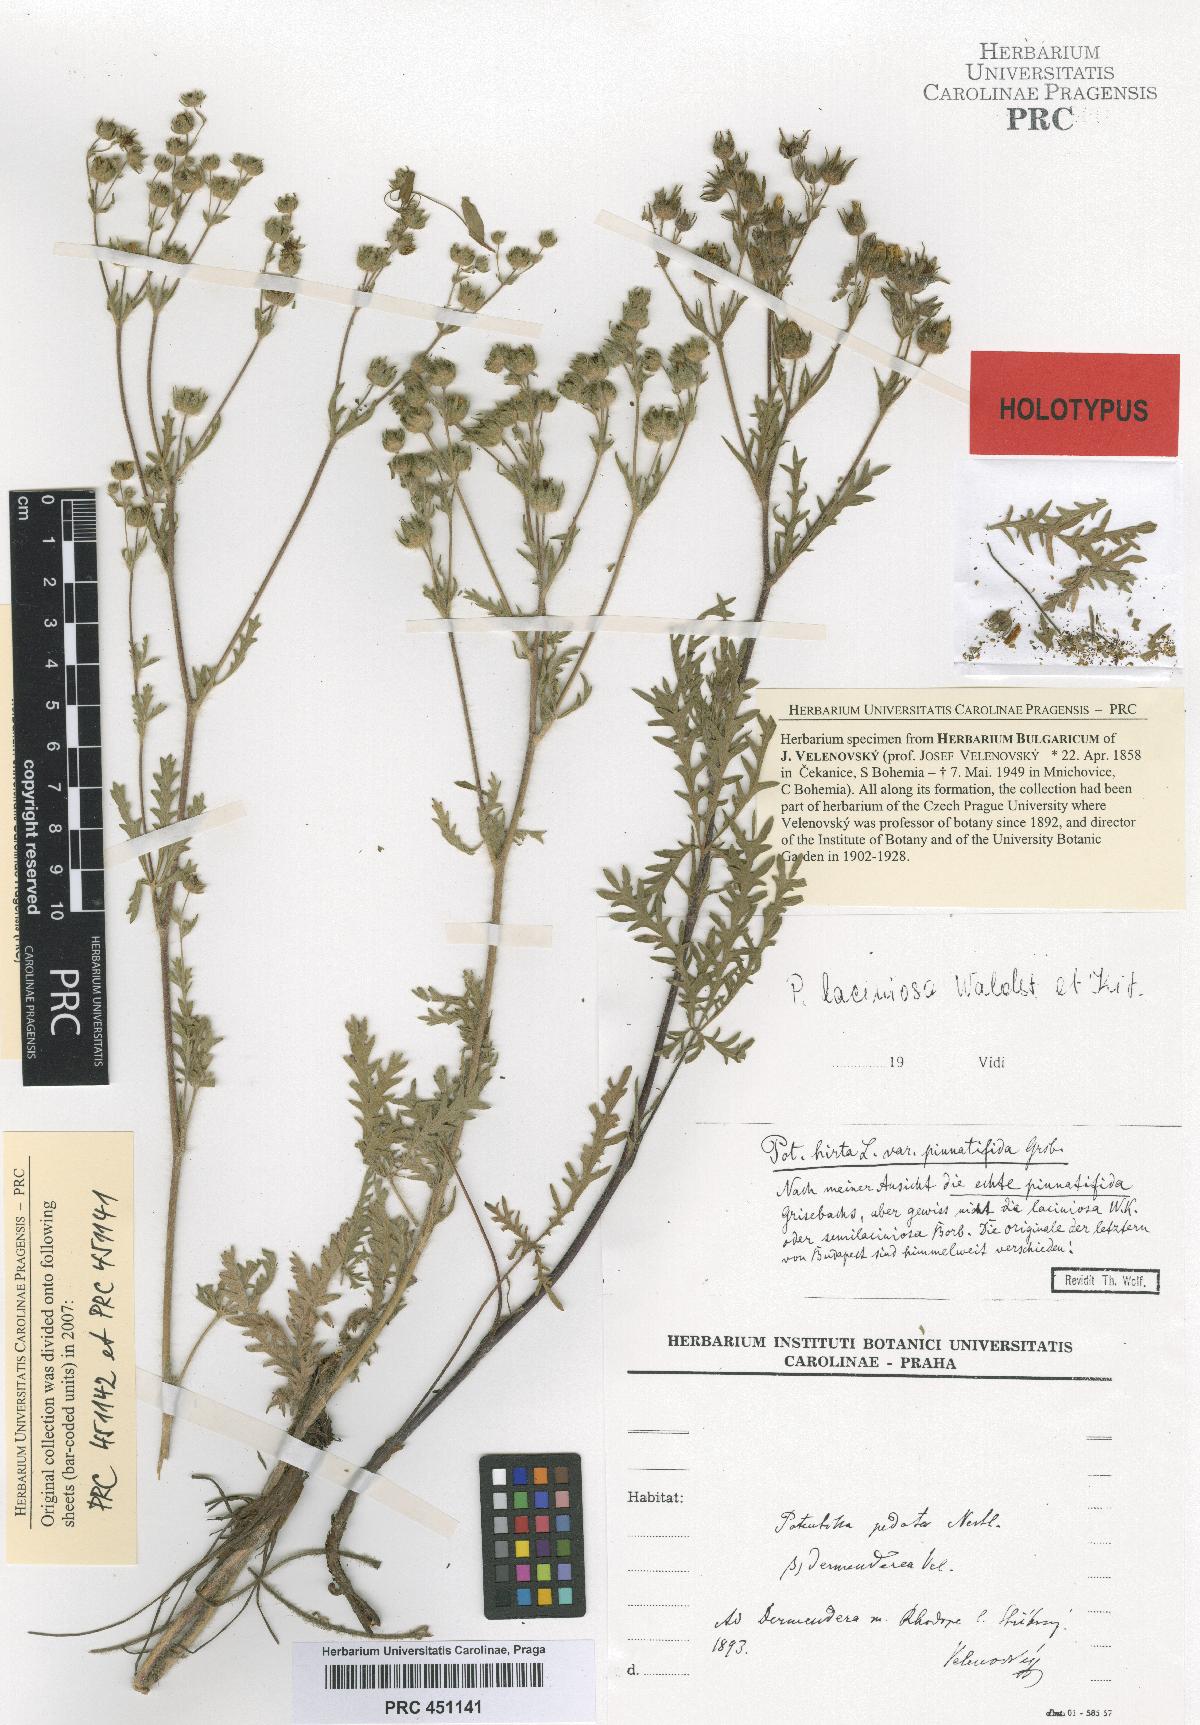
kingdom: Plantae
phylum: Tracheophyta
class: Magnoliopsida
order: Rosales
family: Rosaceae
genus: Potentilla
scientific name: Potentilla pedata
